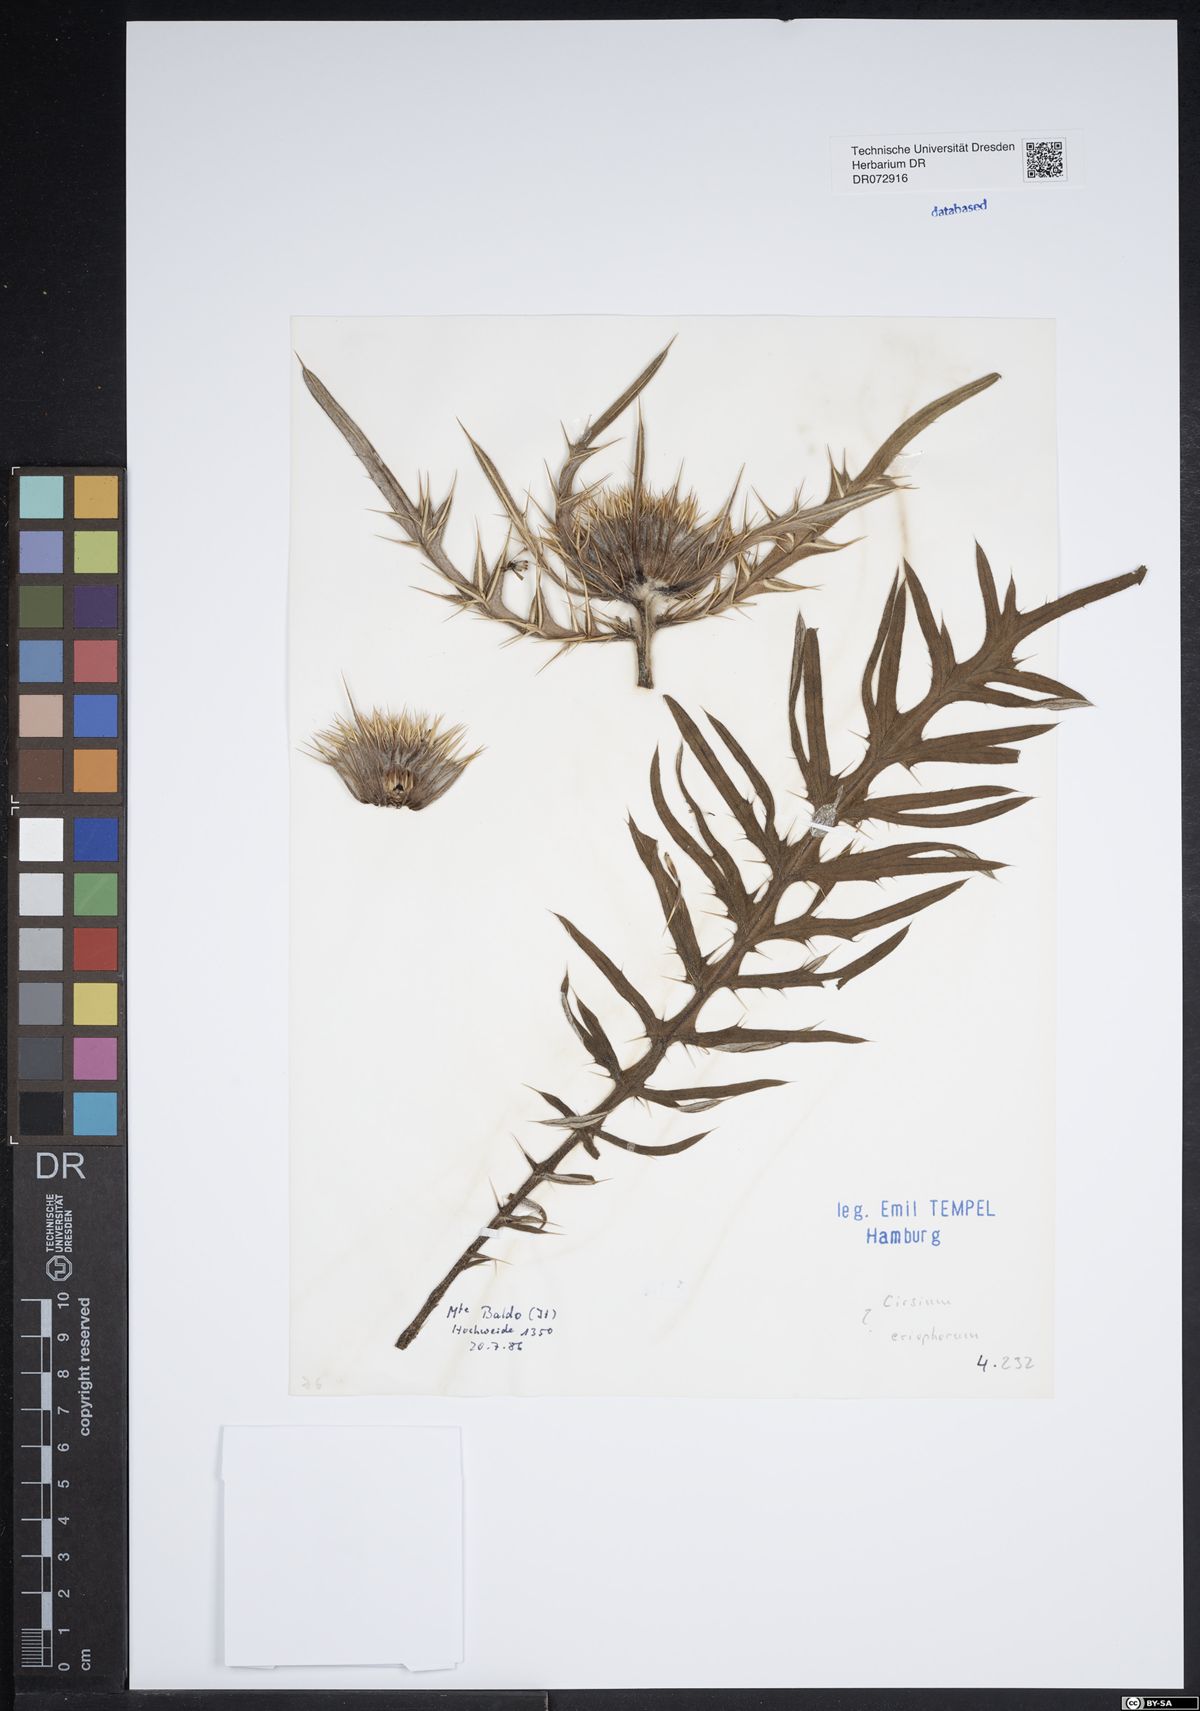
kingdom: Plantae
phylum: Tracheophyta
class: Magnoliopsida
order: Asterales
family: Asteraceae
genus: Lophiolepis
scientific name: Lophiolepis eriophora
